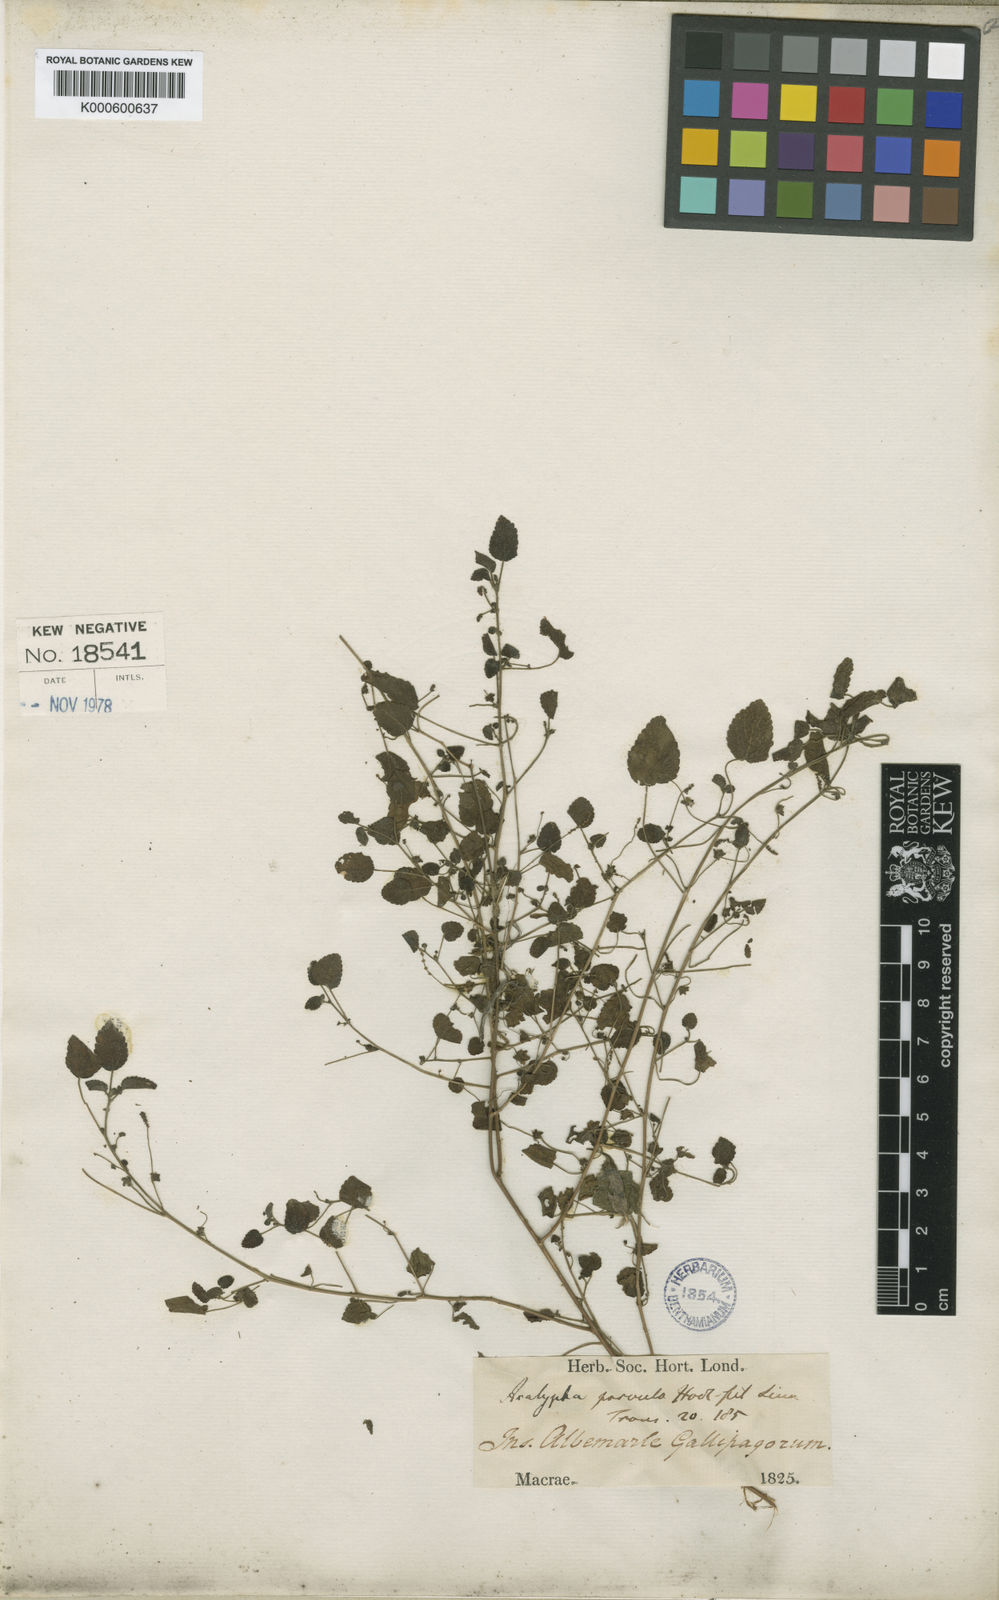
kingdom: Plantae
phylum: Tracheophyta
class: Magnoliopsida
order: Malpighiales
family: Euphorbiaceae
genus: Acalypha
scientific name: Acalypha parvula
